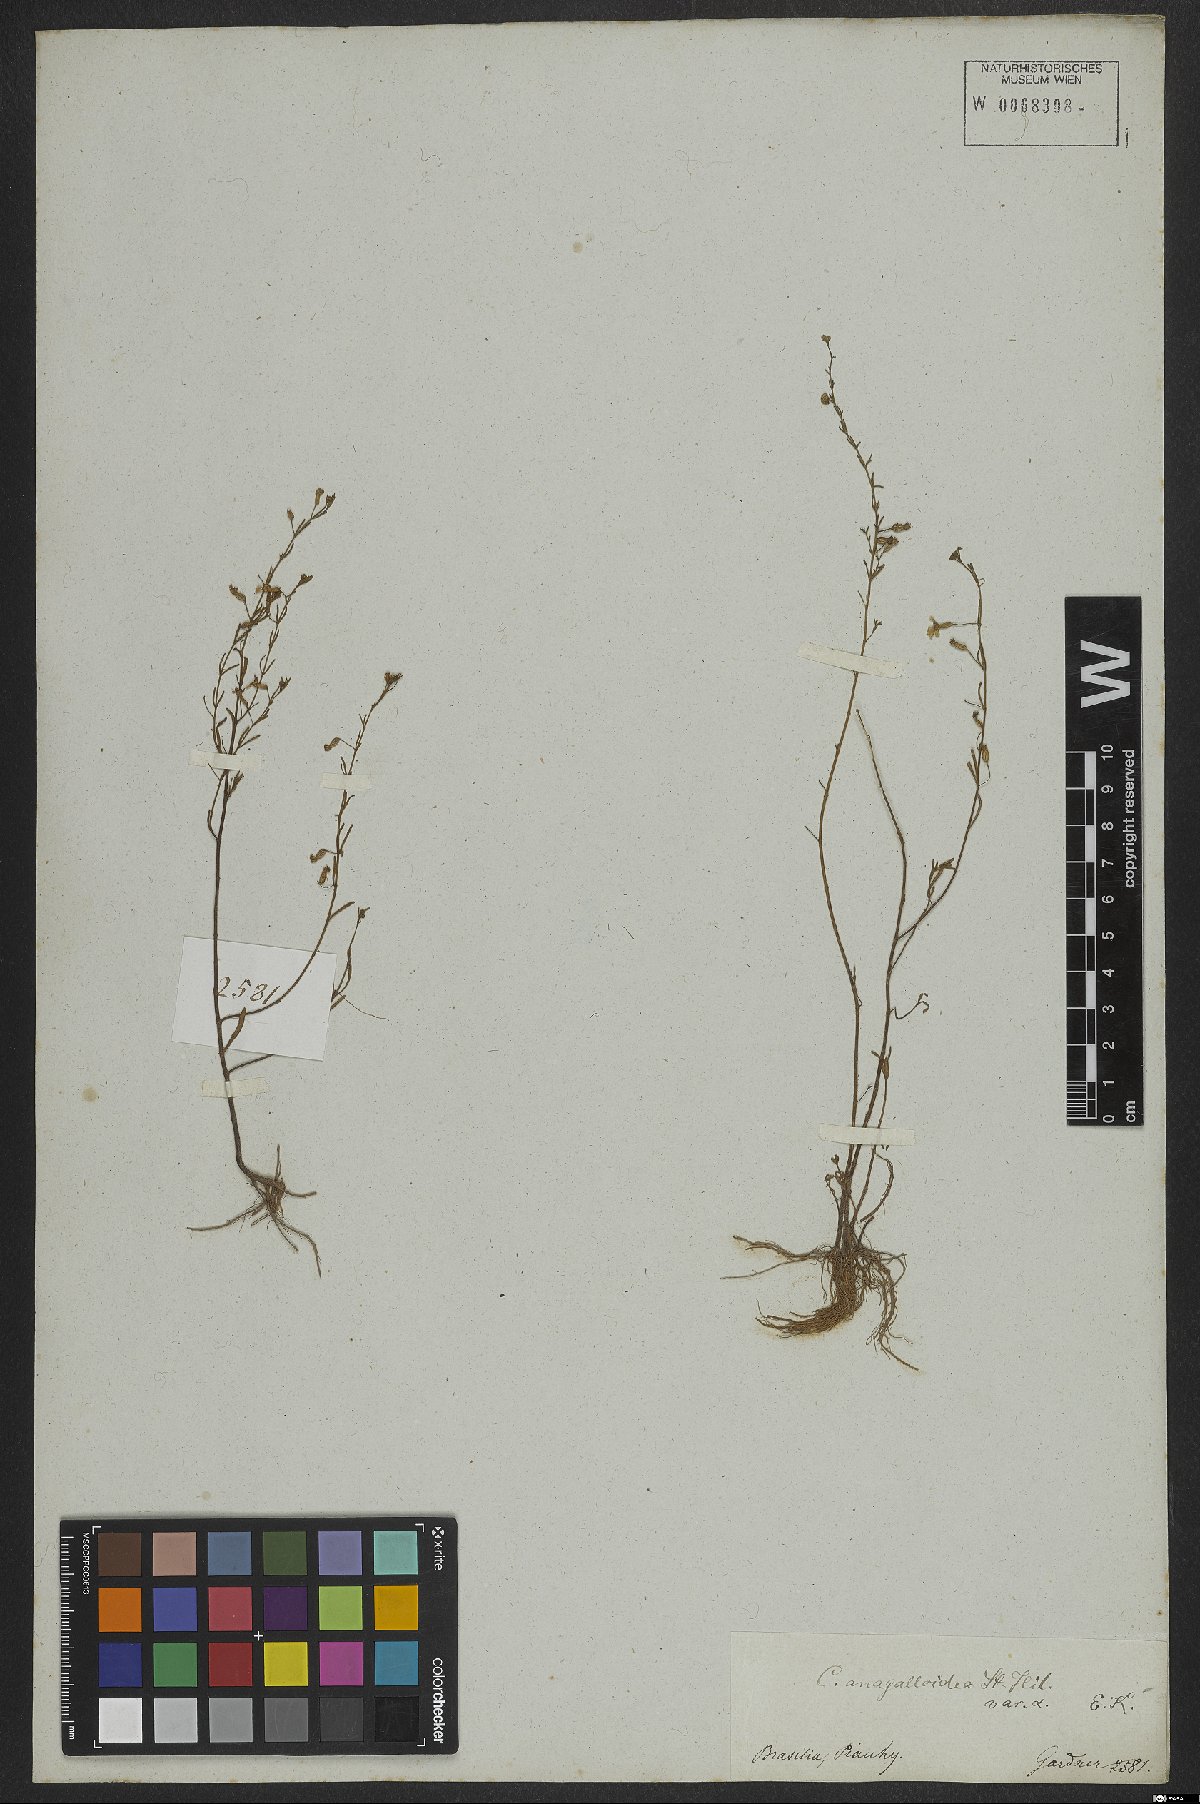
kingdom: Plantae
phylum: Tracheophyta
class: Magnoliopsida
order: Myrtales
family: Lythraceae
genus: Cuphea
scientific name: Cuphea anagalloidea
